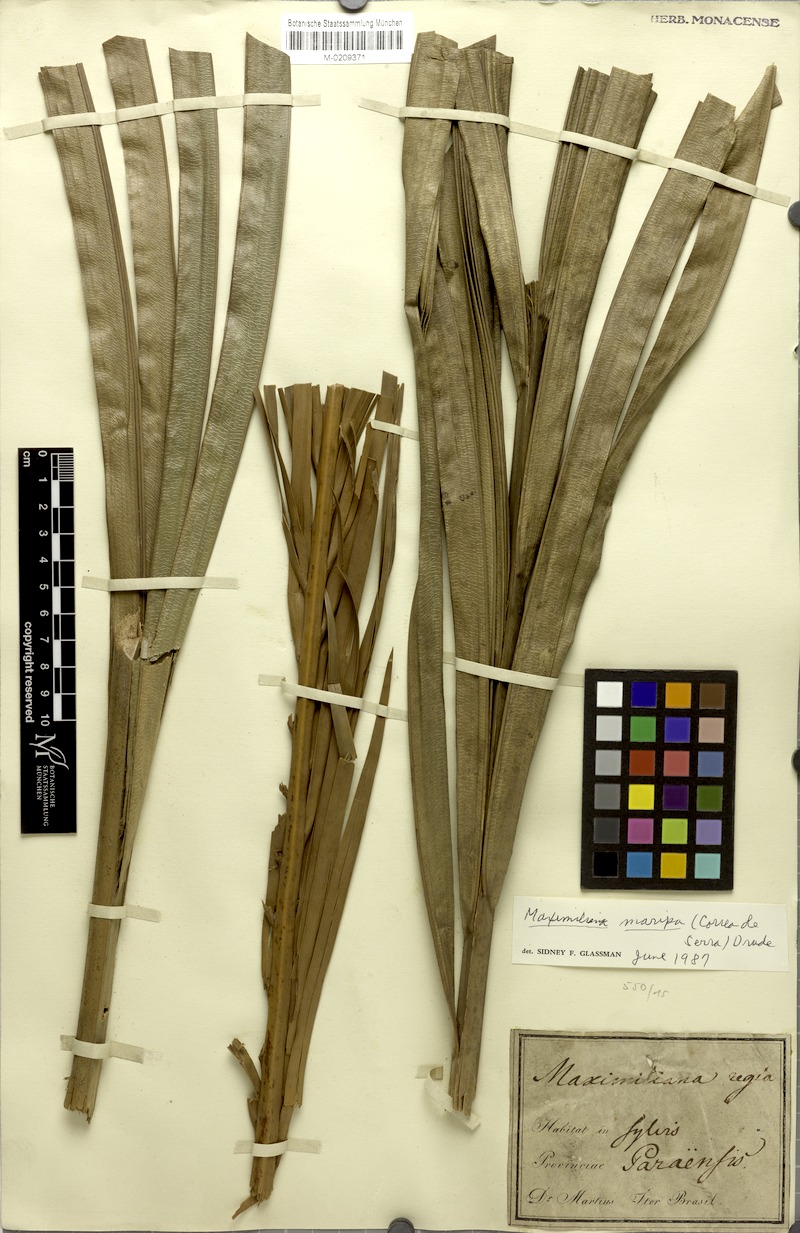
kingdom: Plantae
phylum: Tracheophyta
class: Liliopsida
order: Arecales
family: Arecaceae
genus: Attalea
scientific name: Attalea maripa
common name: Maripa palm
